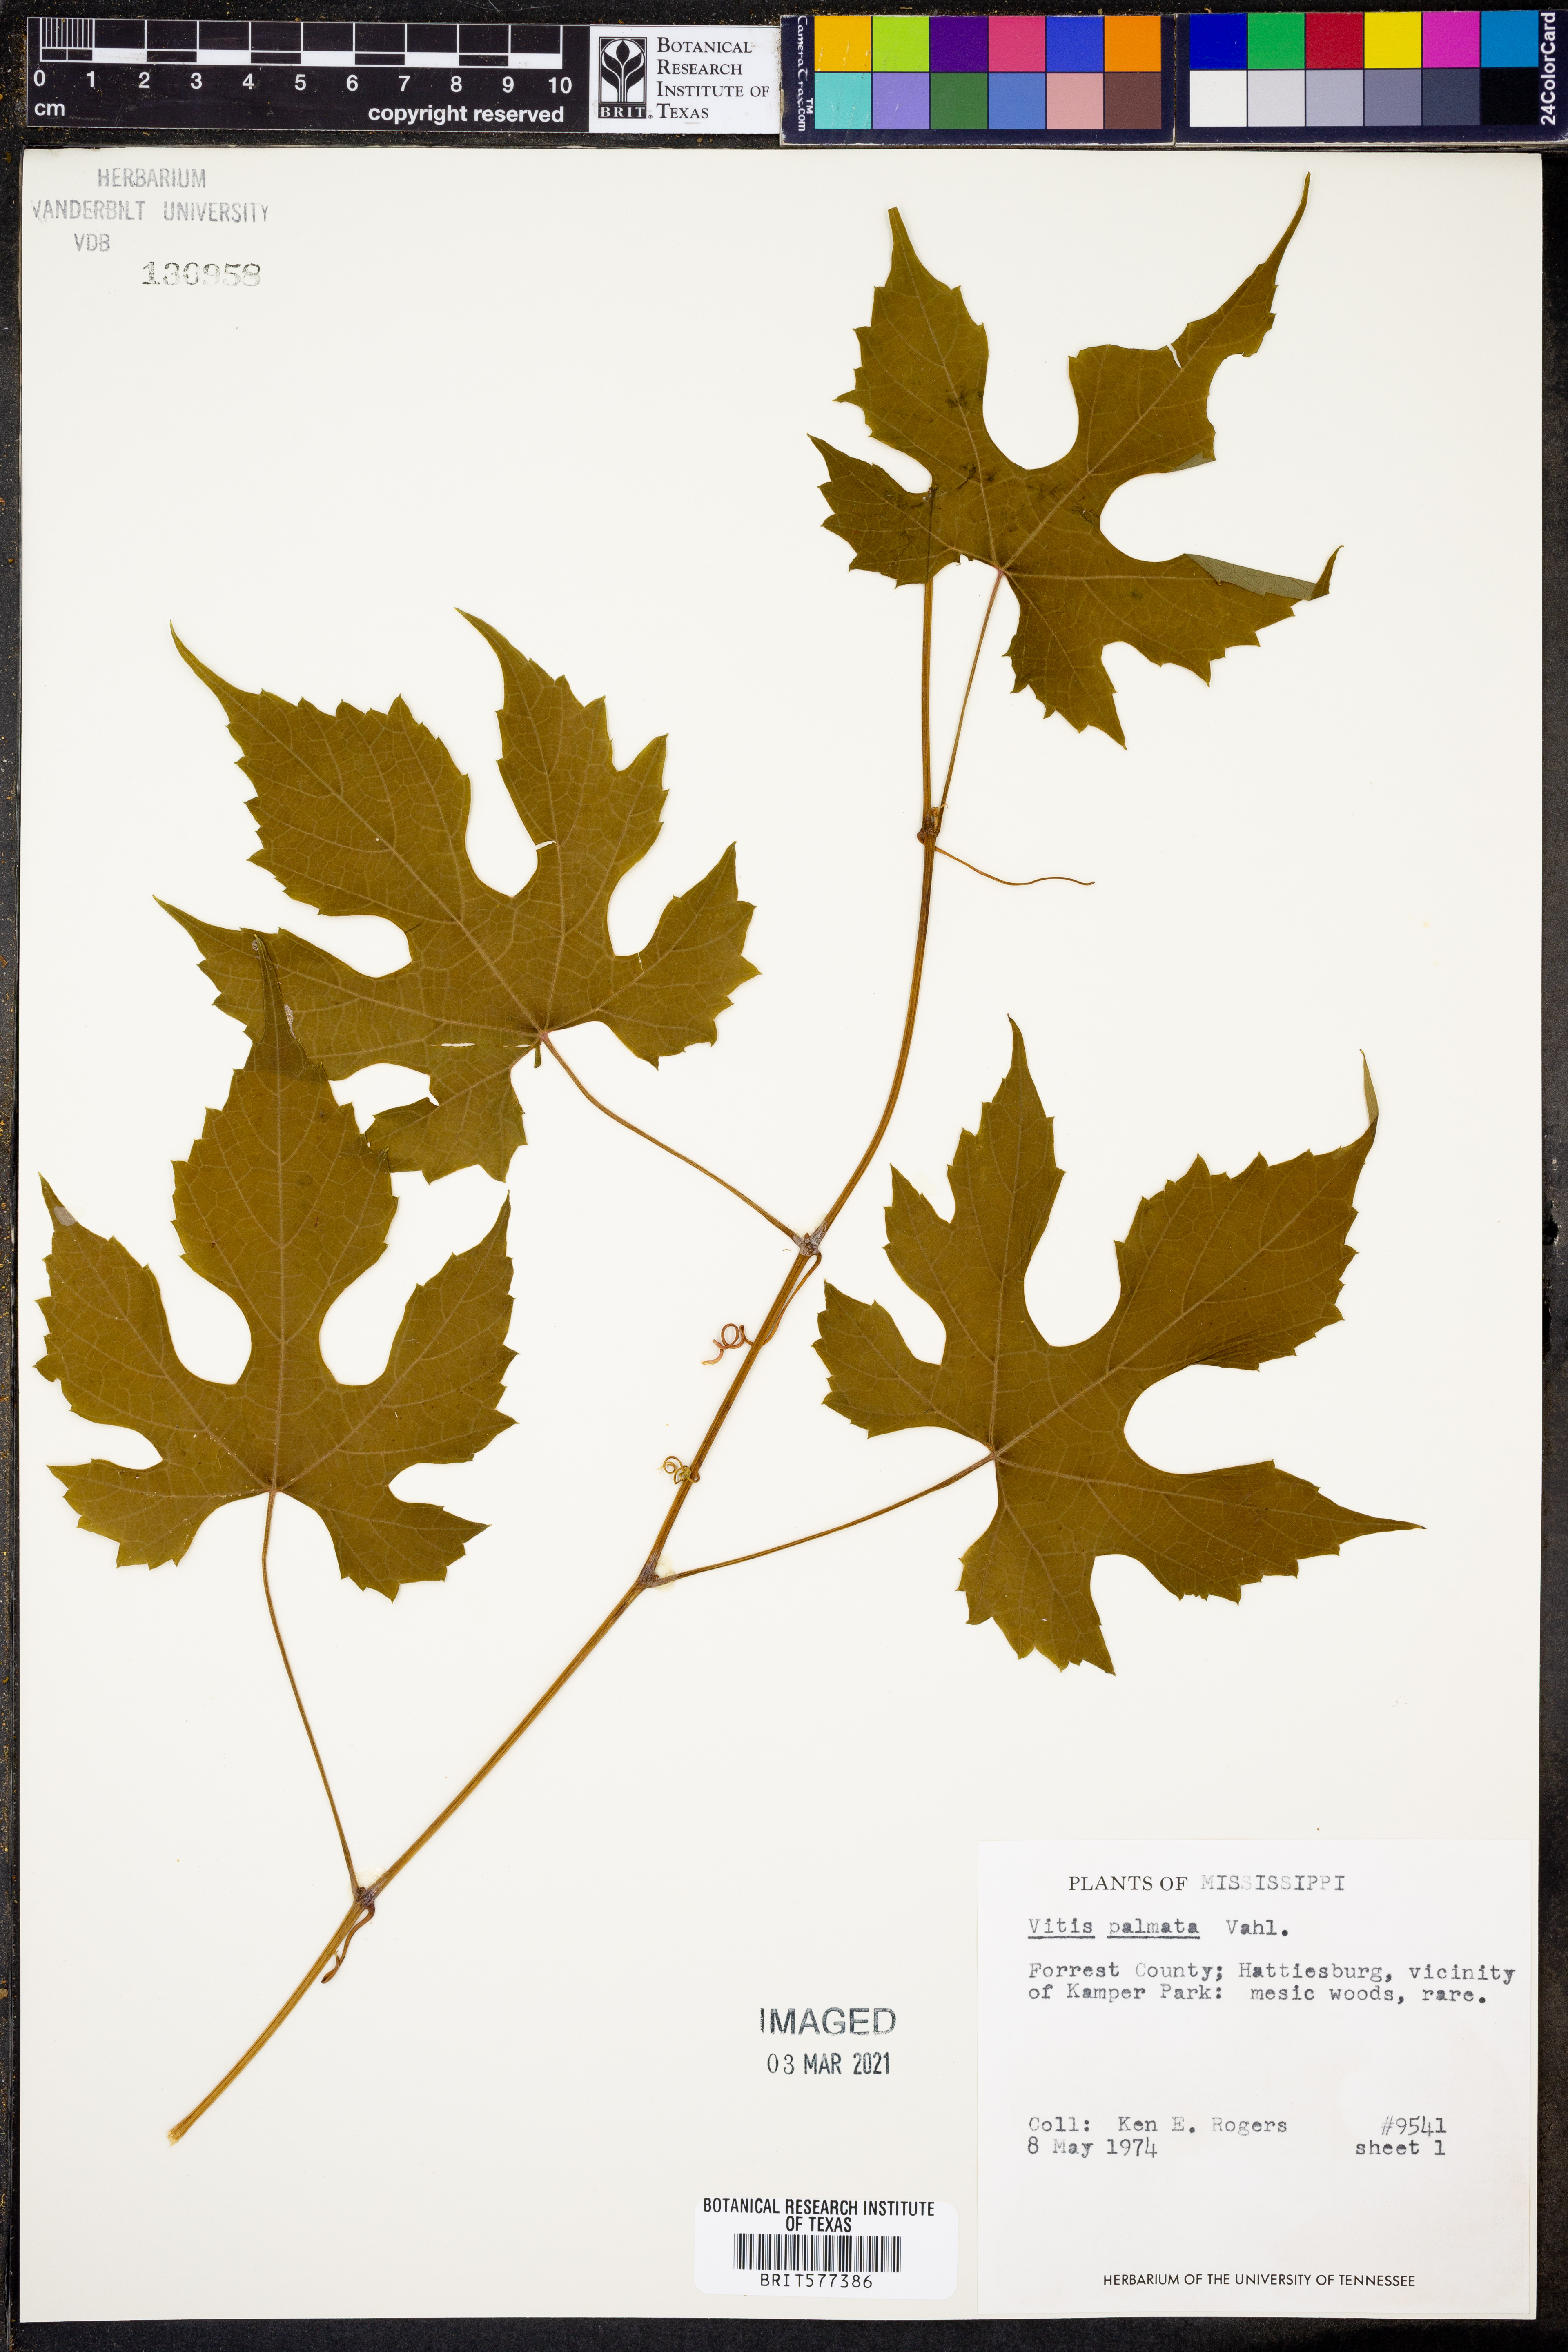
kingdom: Plantae
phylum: Tracheophyta
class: Magnoliopsida
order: Vitales
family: Vitaceae
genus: Vitis
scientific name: Vitis palmata
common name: Catbird grape
